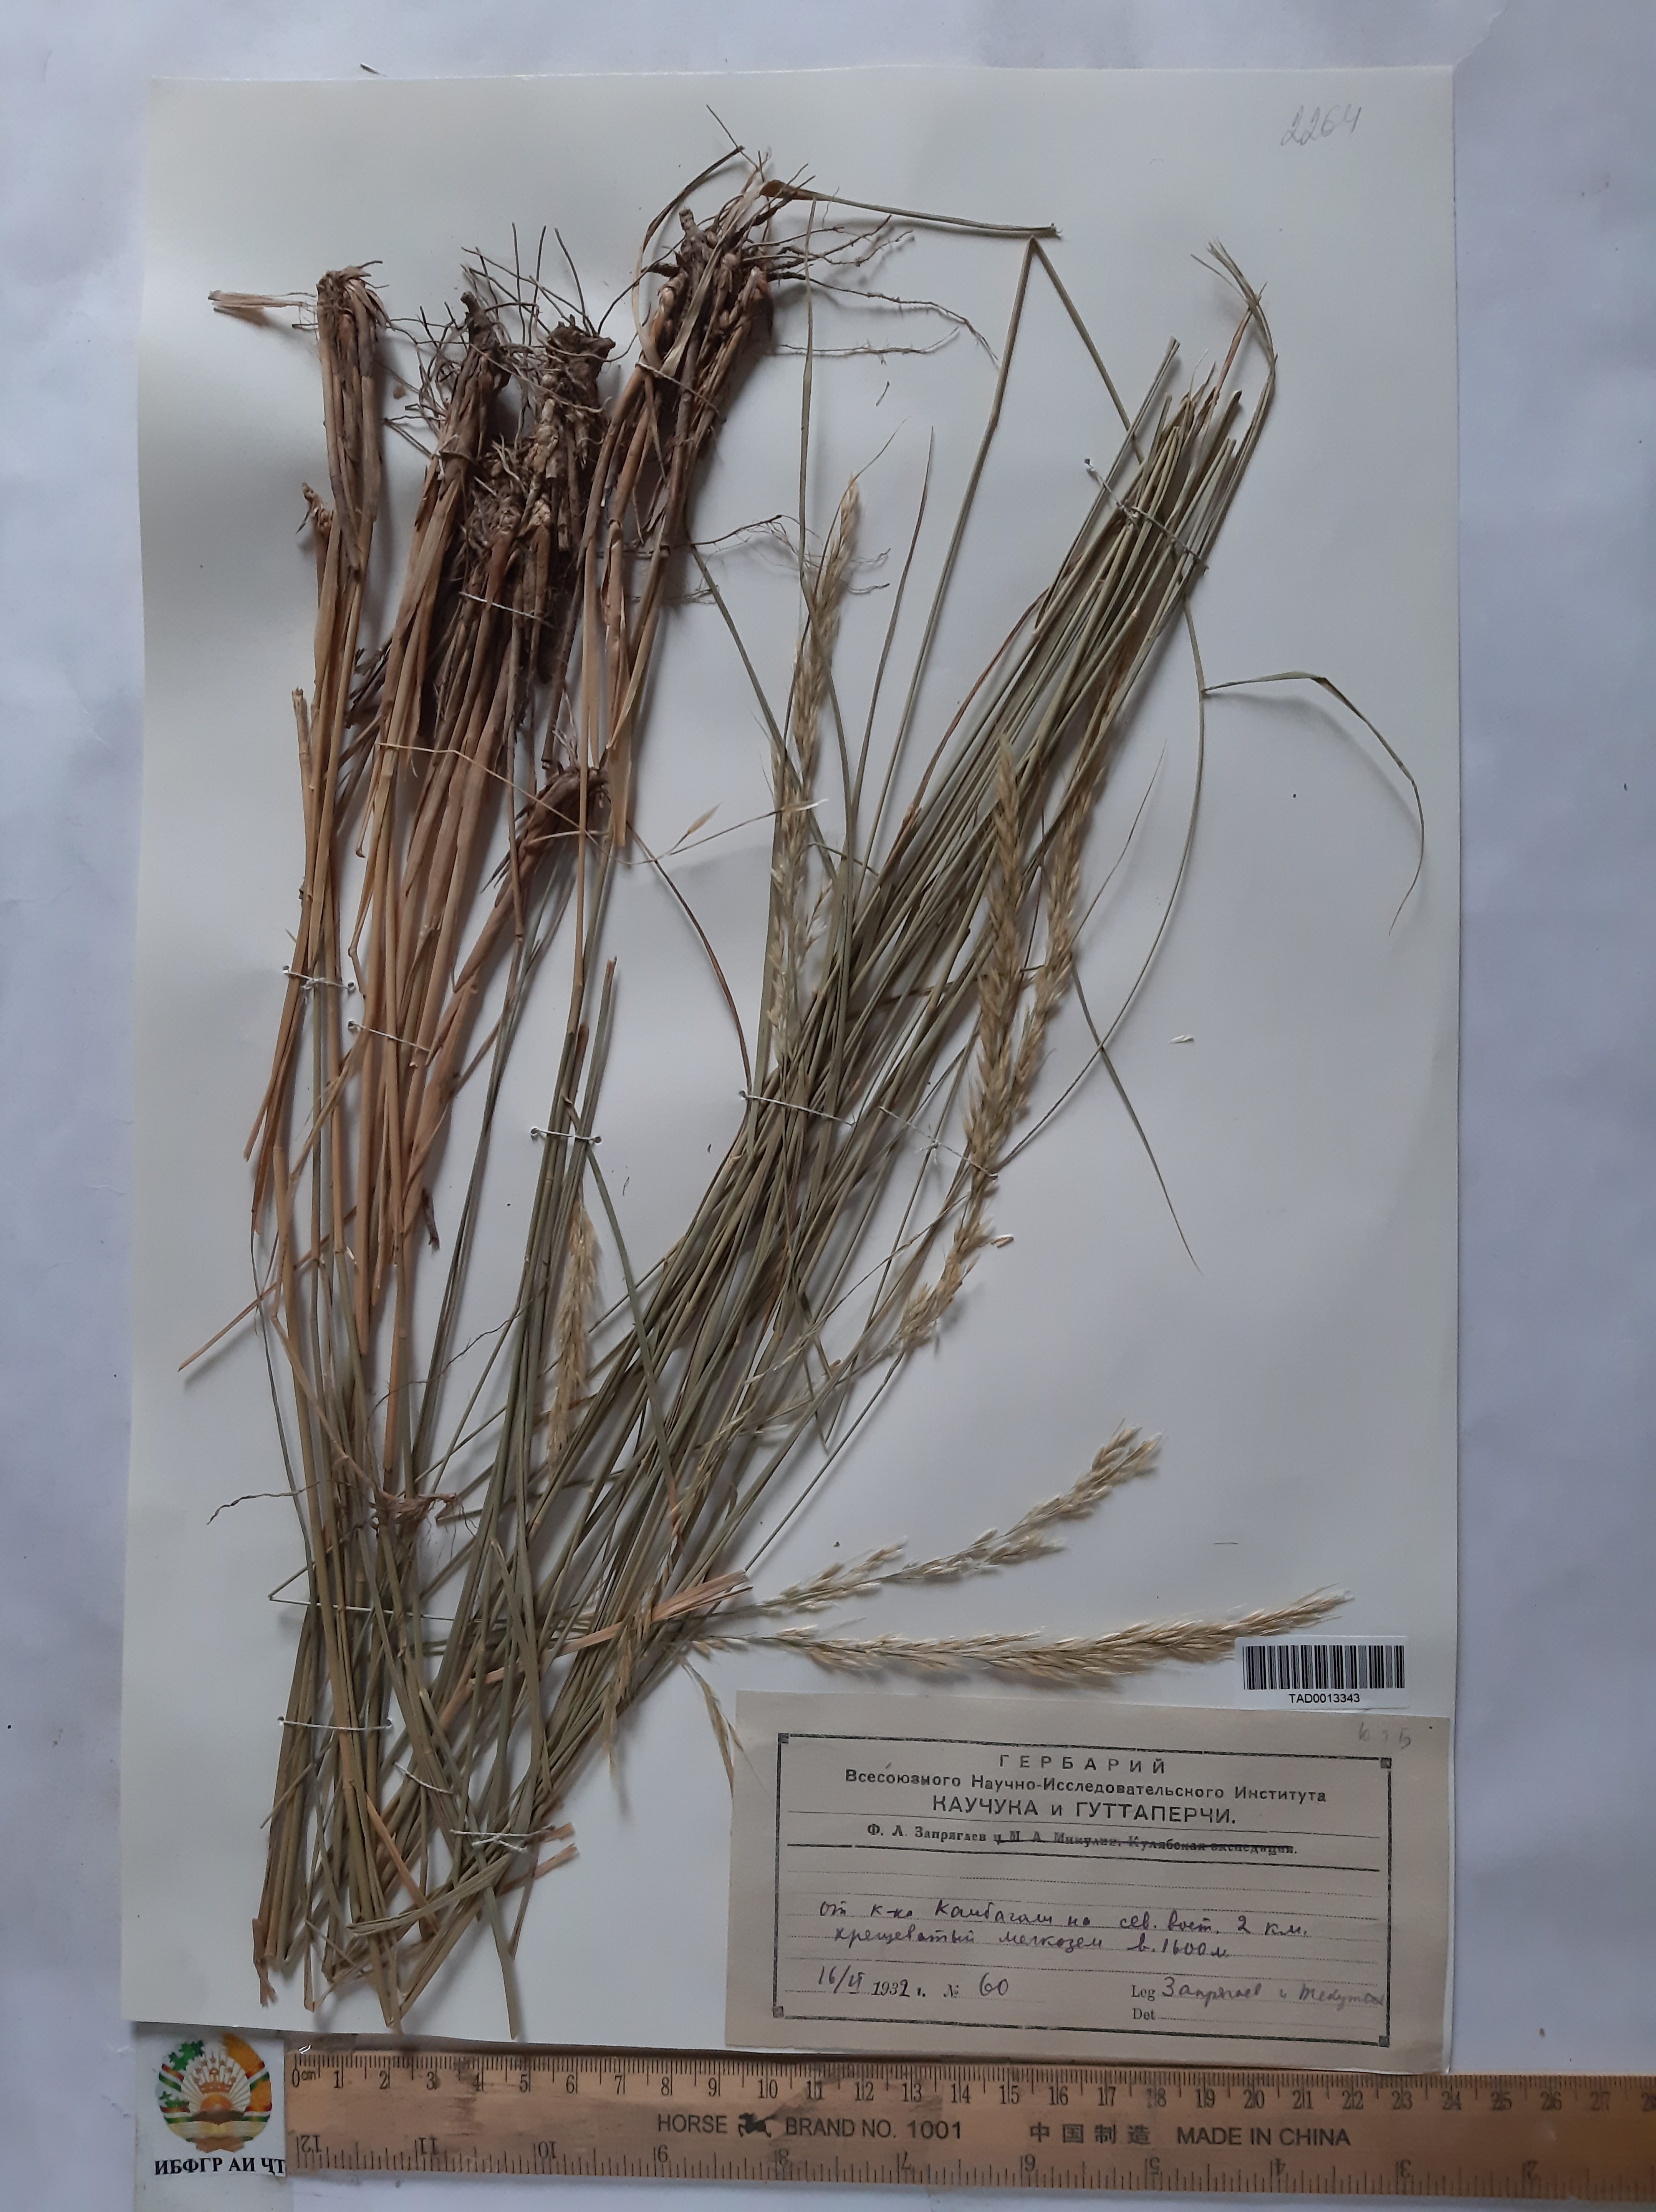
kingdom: Plantae
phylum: Tracheophyta
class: Liliopsida
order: Poales
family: Poaceae
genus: Achnatherum
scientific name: Achnatherum turcomanicum
